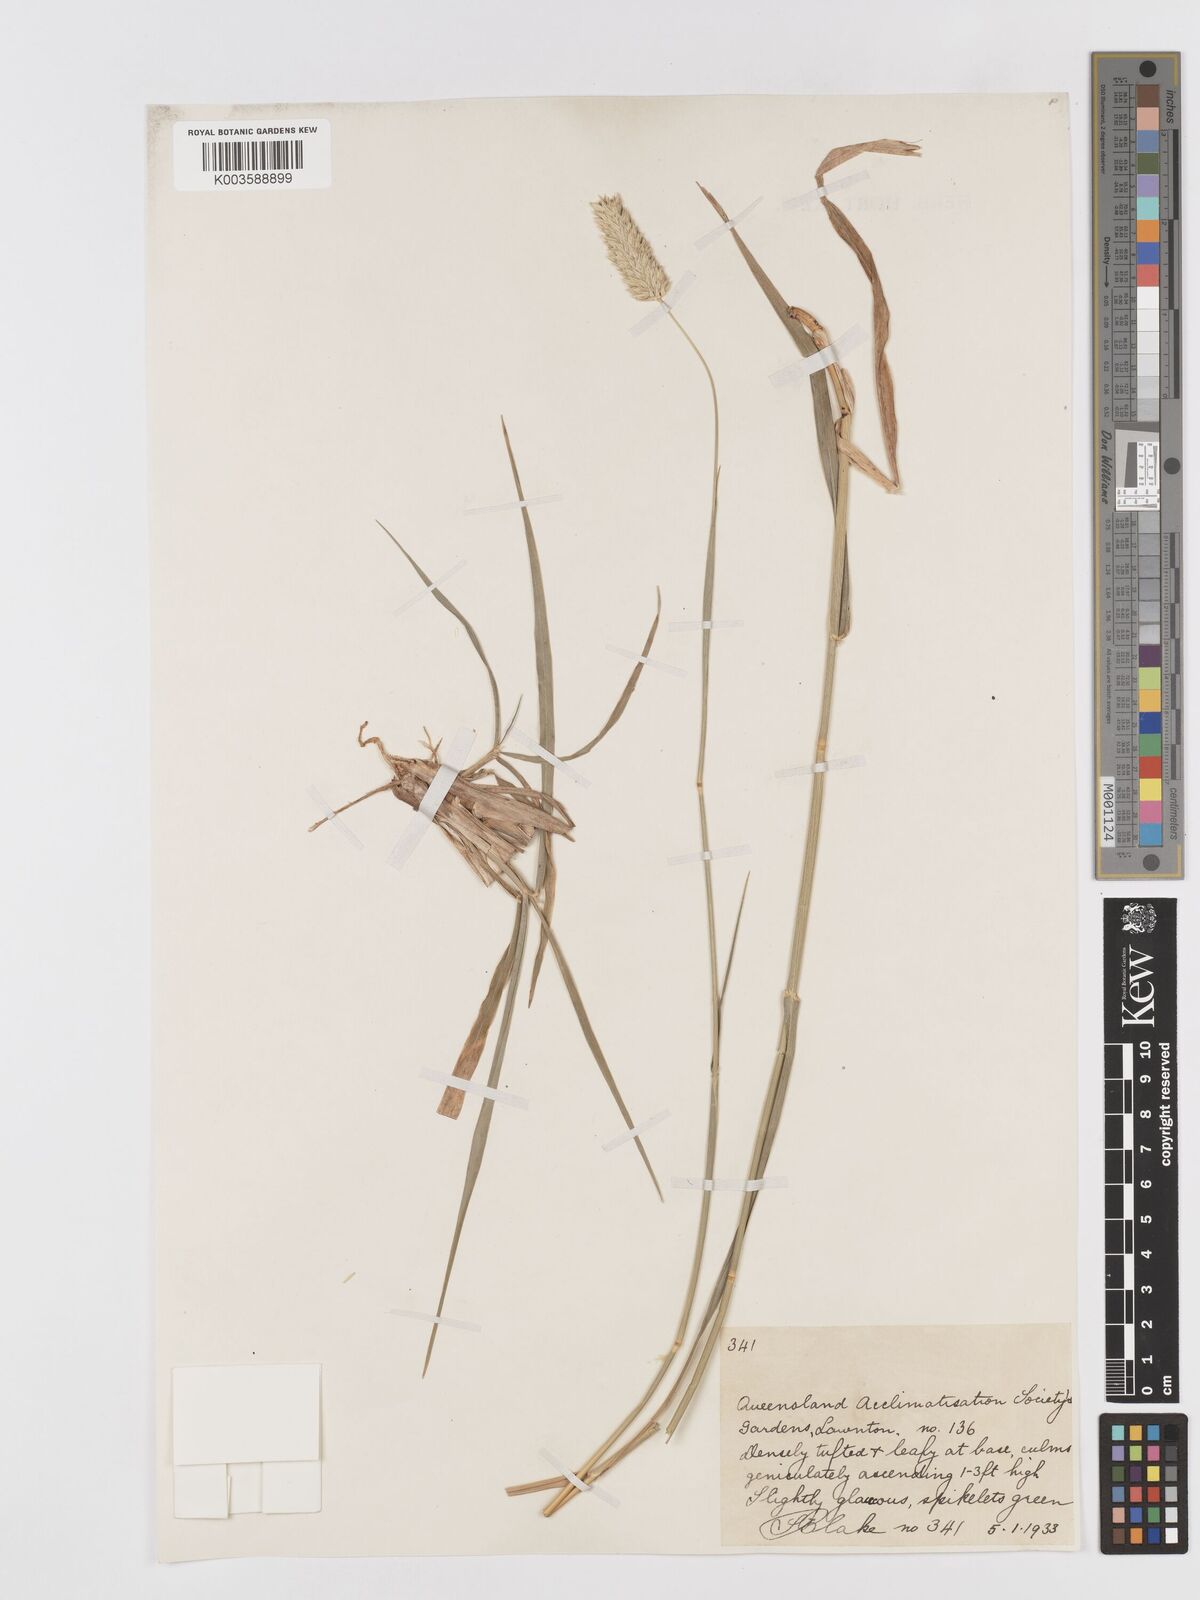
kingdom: Plantae
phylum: Tracheophyta
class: Liliopsida
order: Poales
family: Poaceae
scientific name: Poaceae
